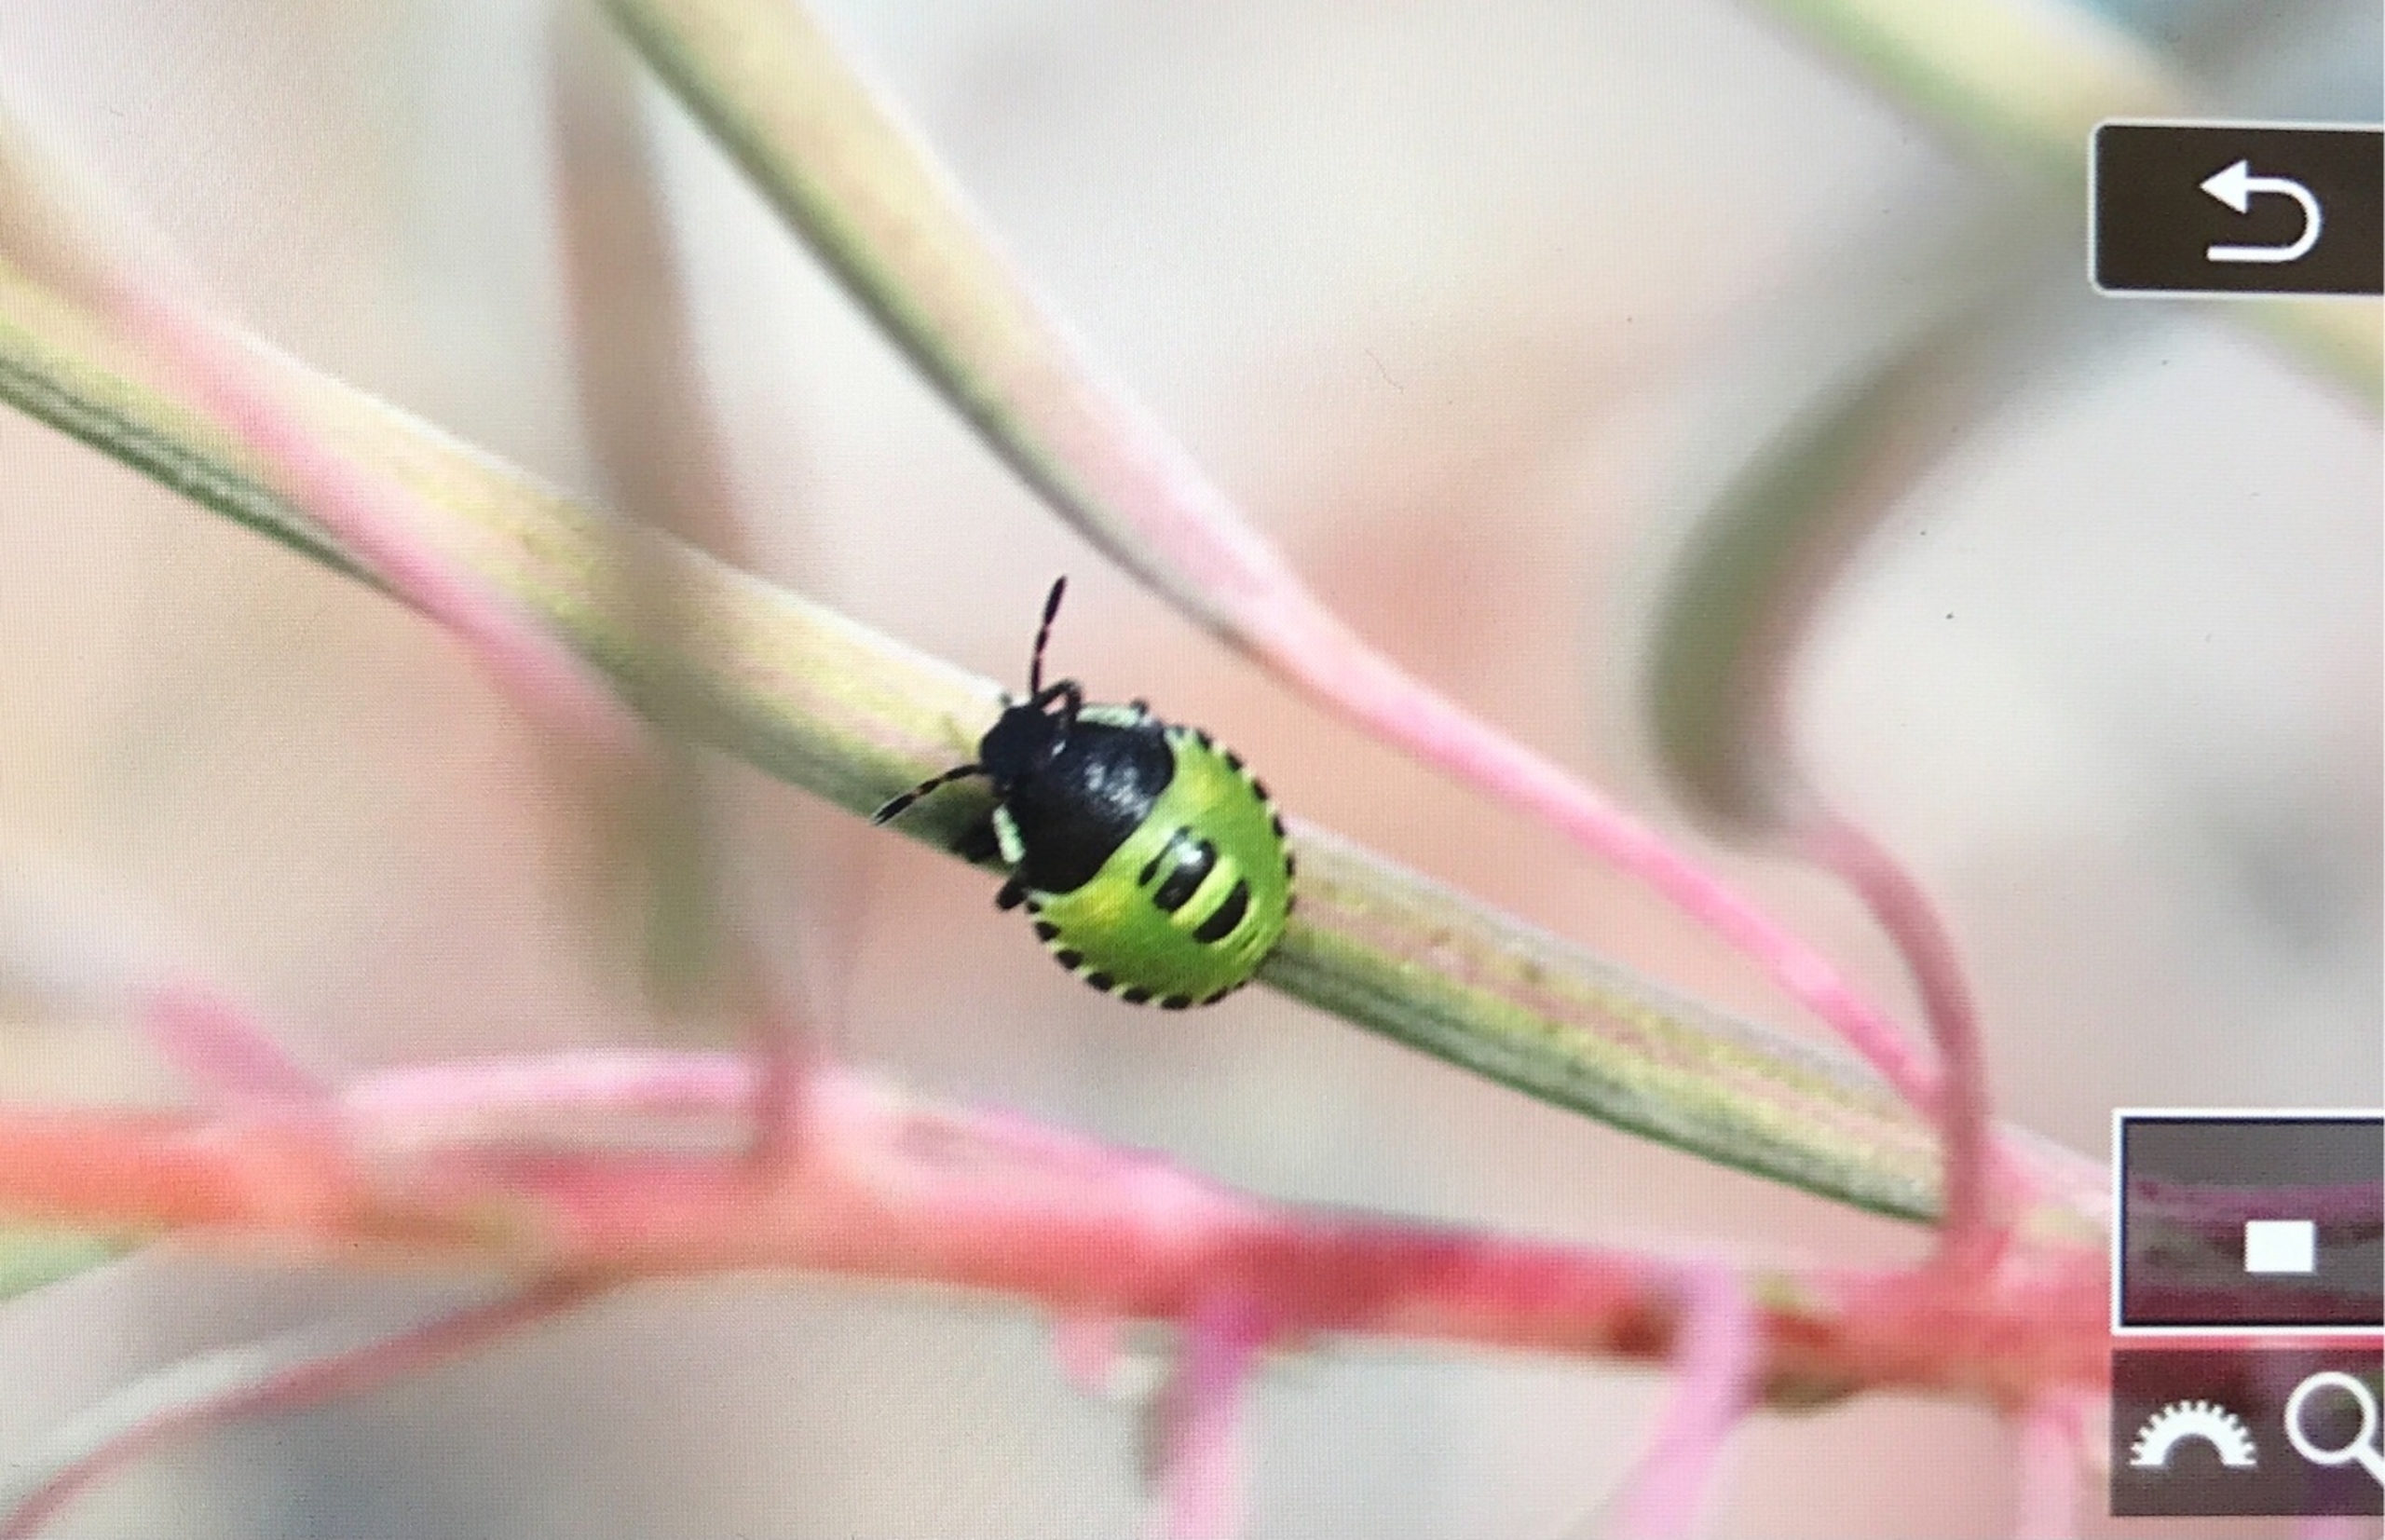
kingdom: Animalia
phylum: Arthropoda
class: Insecta
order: Hemiptera
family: Pentatomidae
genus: Palomena
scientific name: Palomena prasina
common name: Grøn bredtæge
